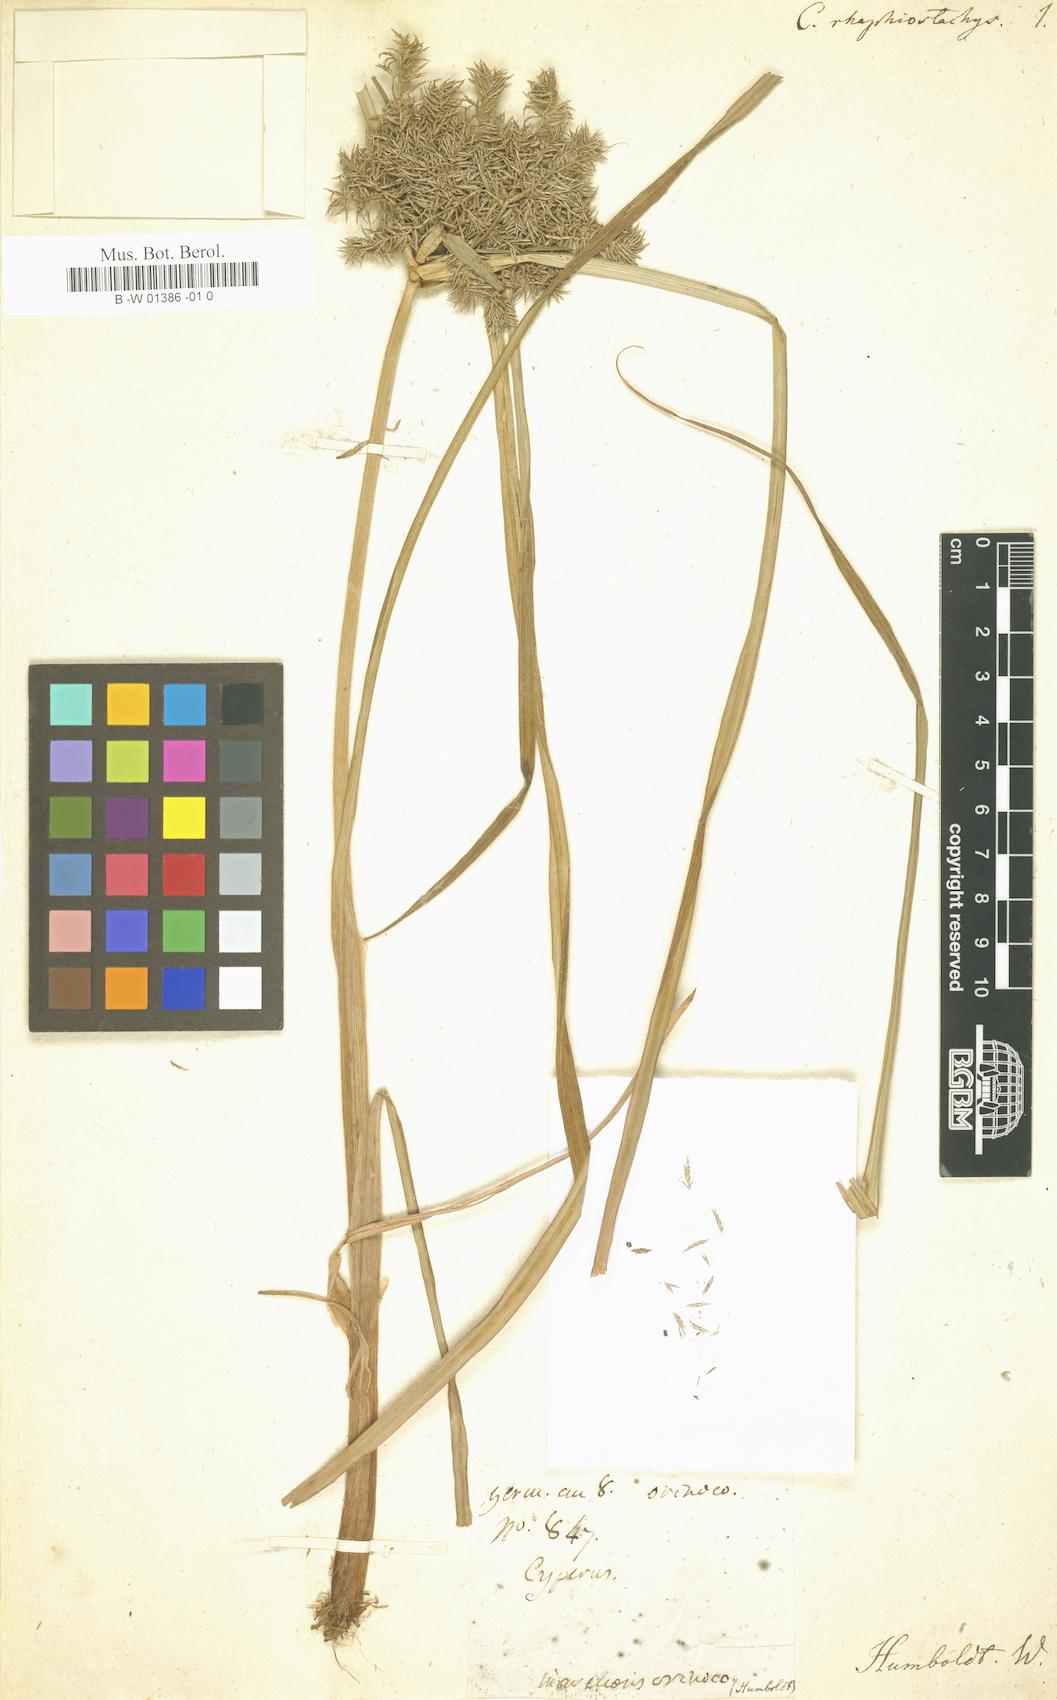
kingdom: Plantae
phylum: Tracheophyta
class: Liliopsida
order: Poales
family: Cyperaceae
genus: Cyperus
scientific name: Cyperus digitatus
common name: Finger flatsedge
